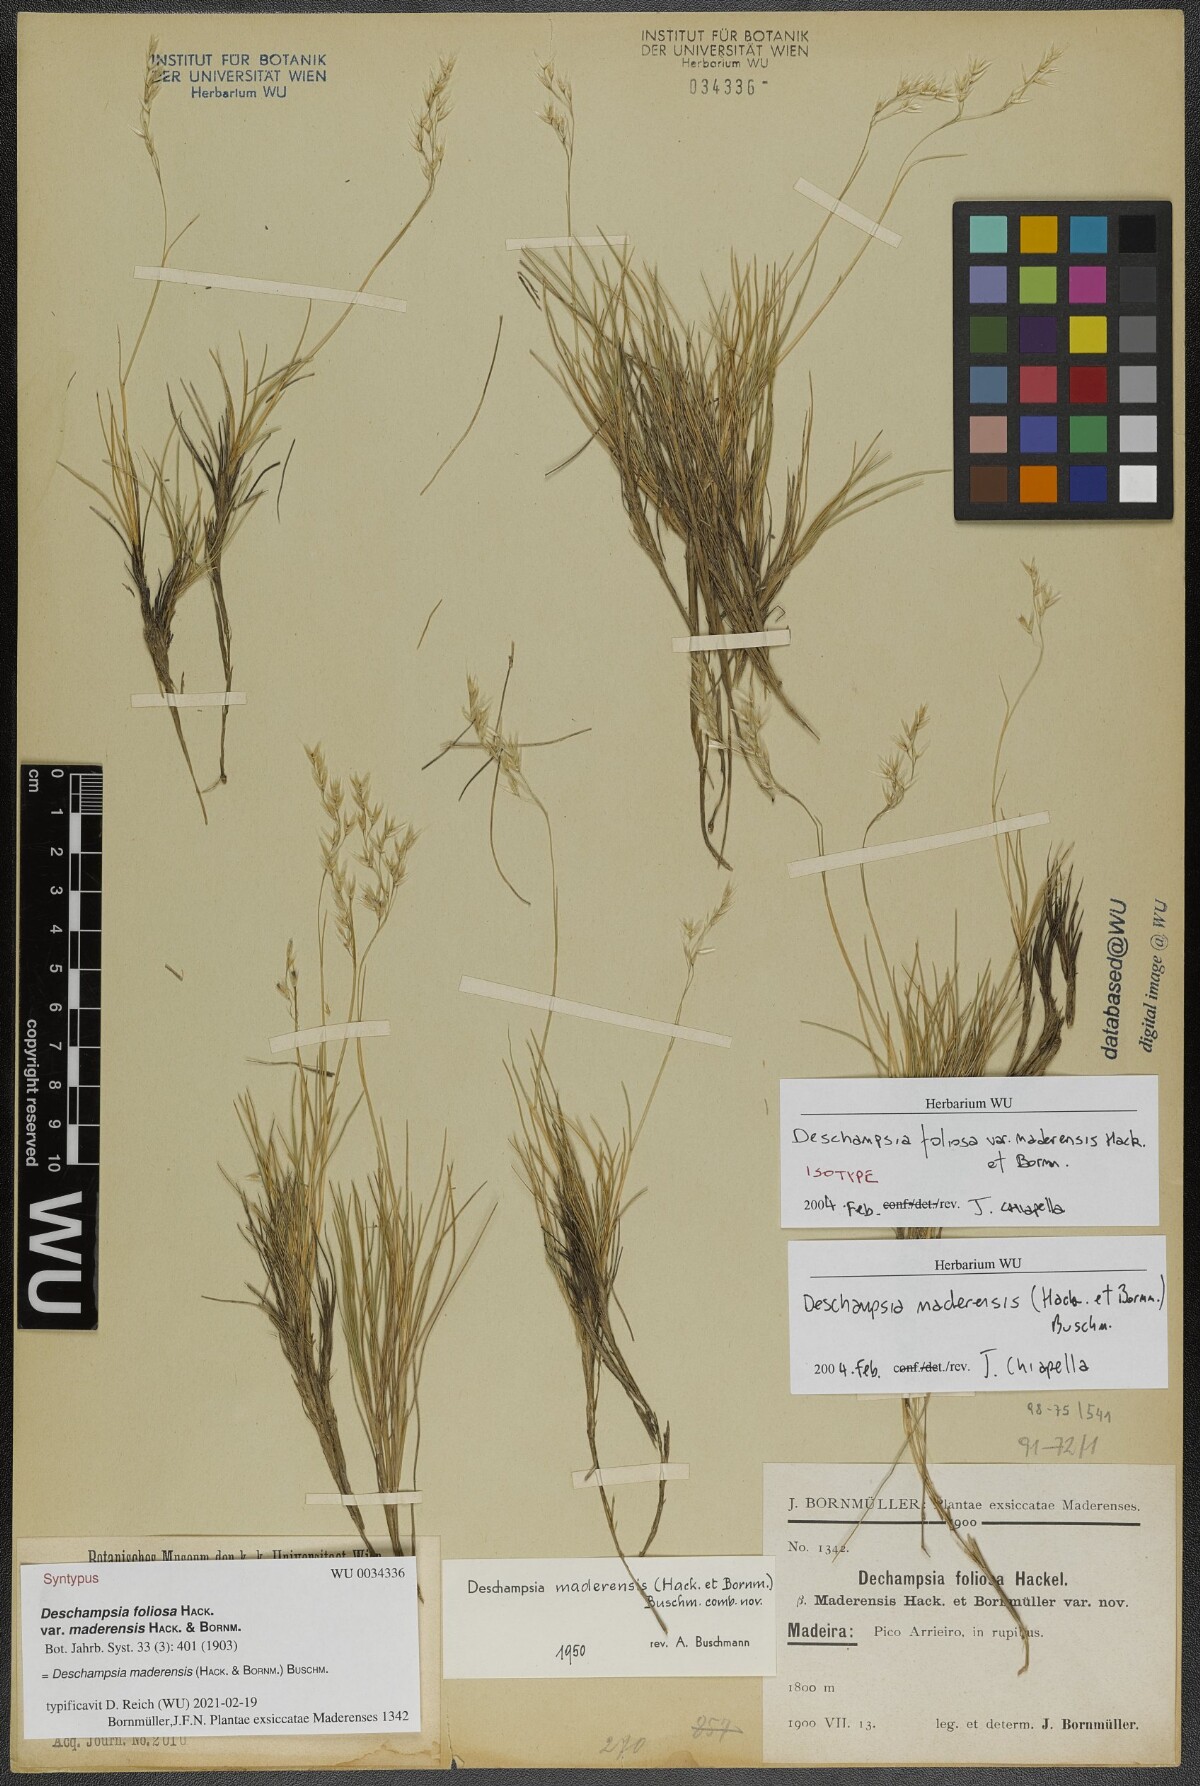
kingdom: Plantae
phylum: Tracheophyta
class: Liliopsida
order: Poales
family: Poaceae
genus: Avenella
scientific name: Avenella flexuosa
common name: Wavy hairgrass
